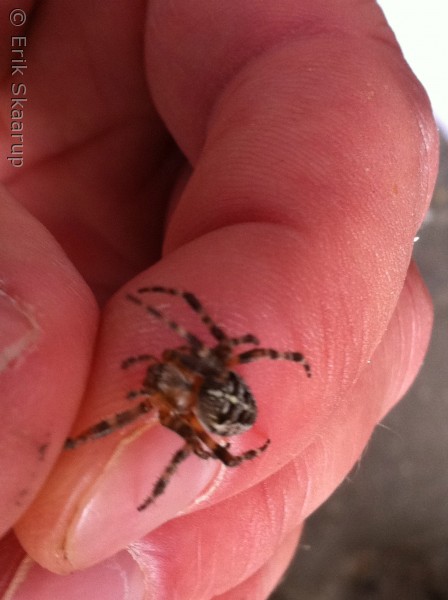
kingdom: Animalia
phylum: Arthropoda
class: Arachnida
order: Araneae
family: Araneidae
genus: Araneus
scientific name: Araneus diadematus
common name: Korsedderkop
